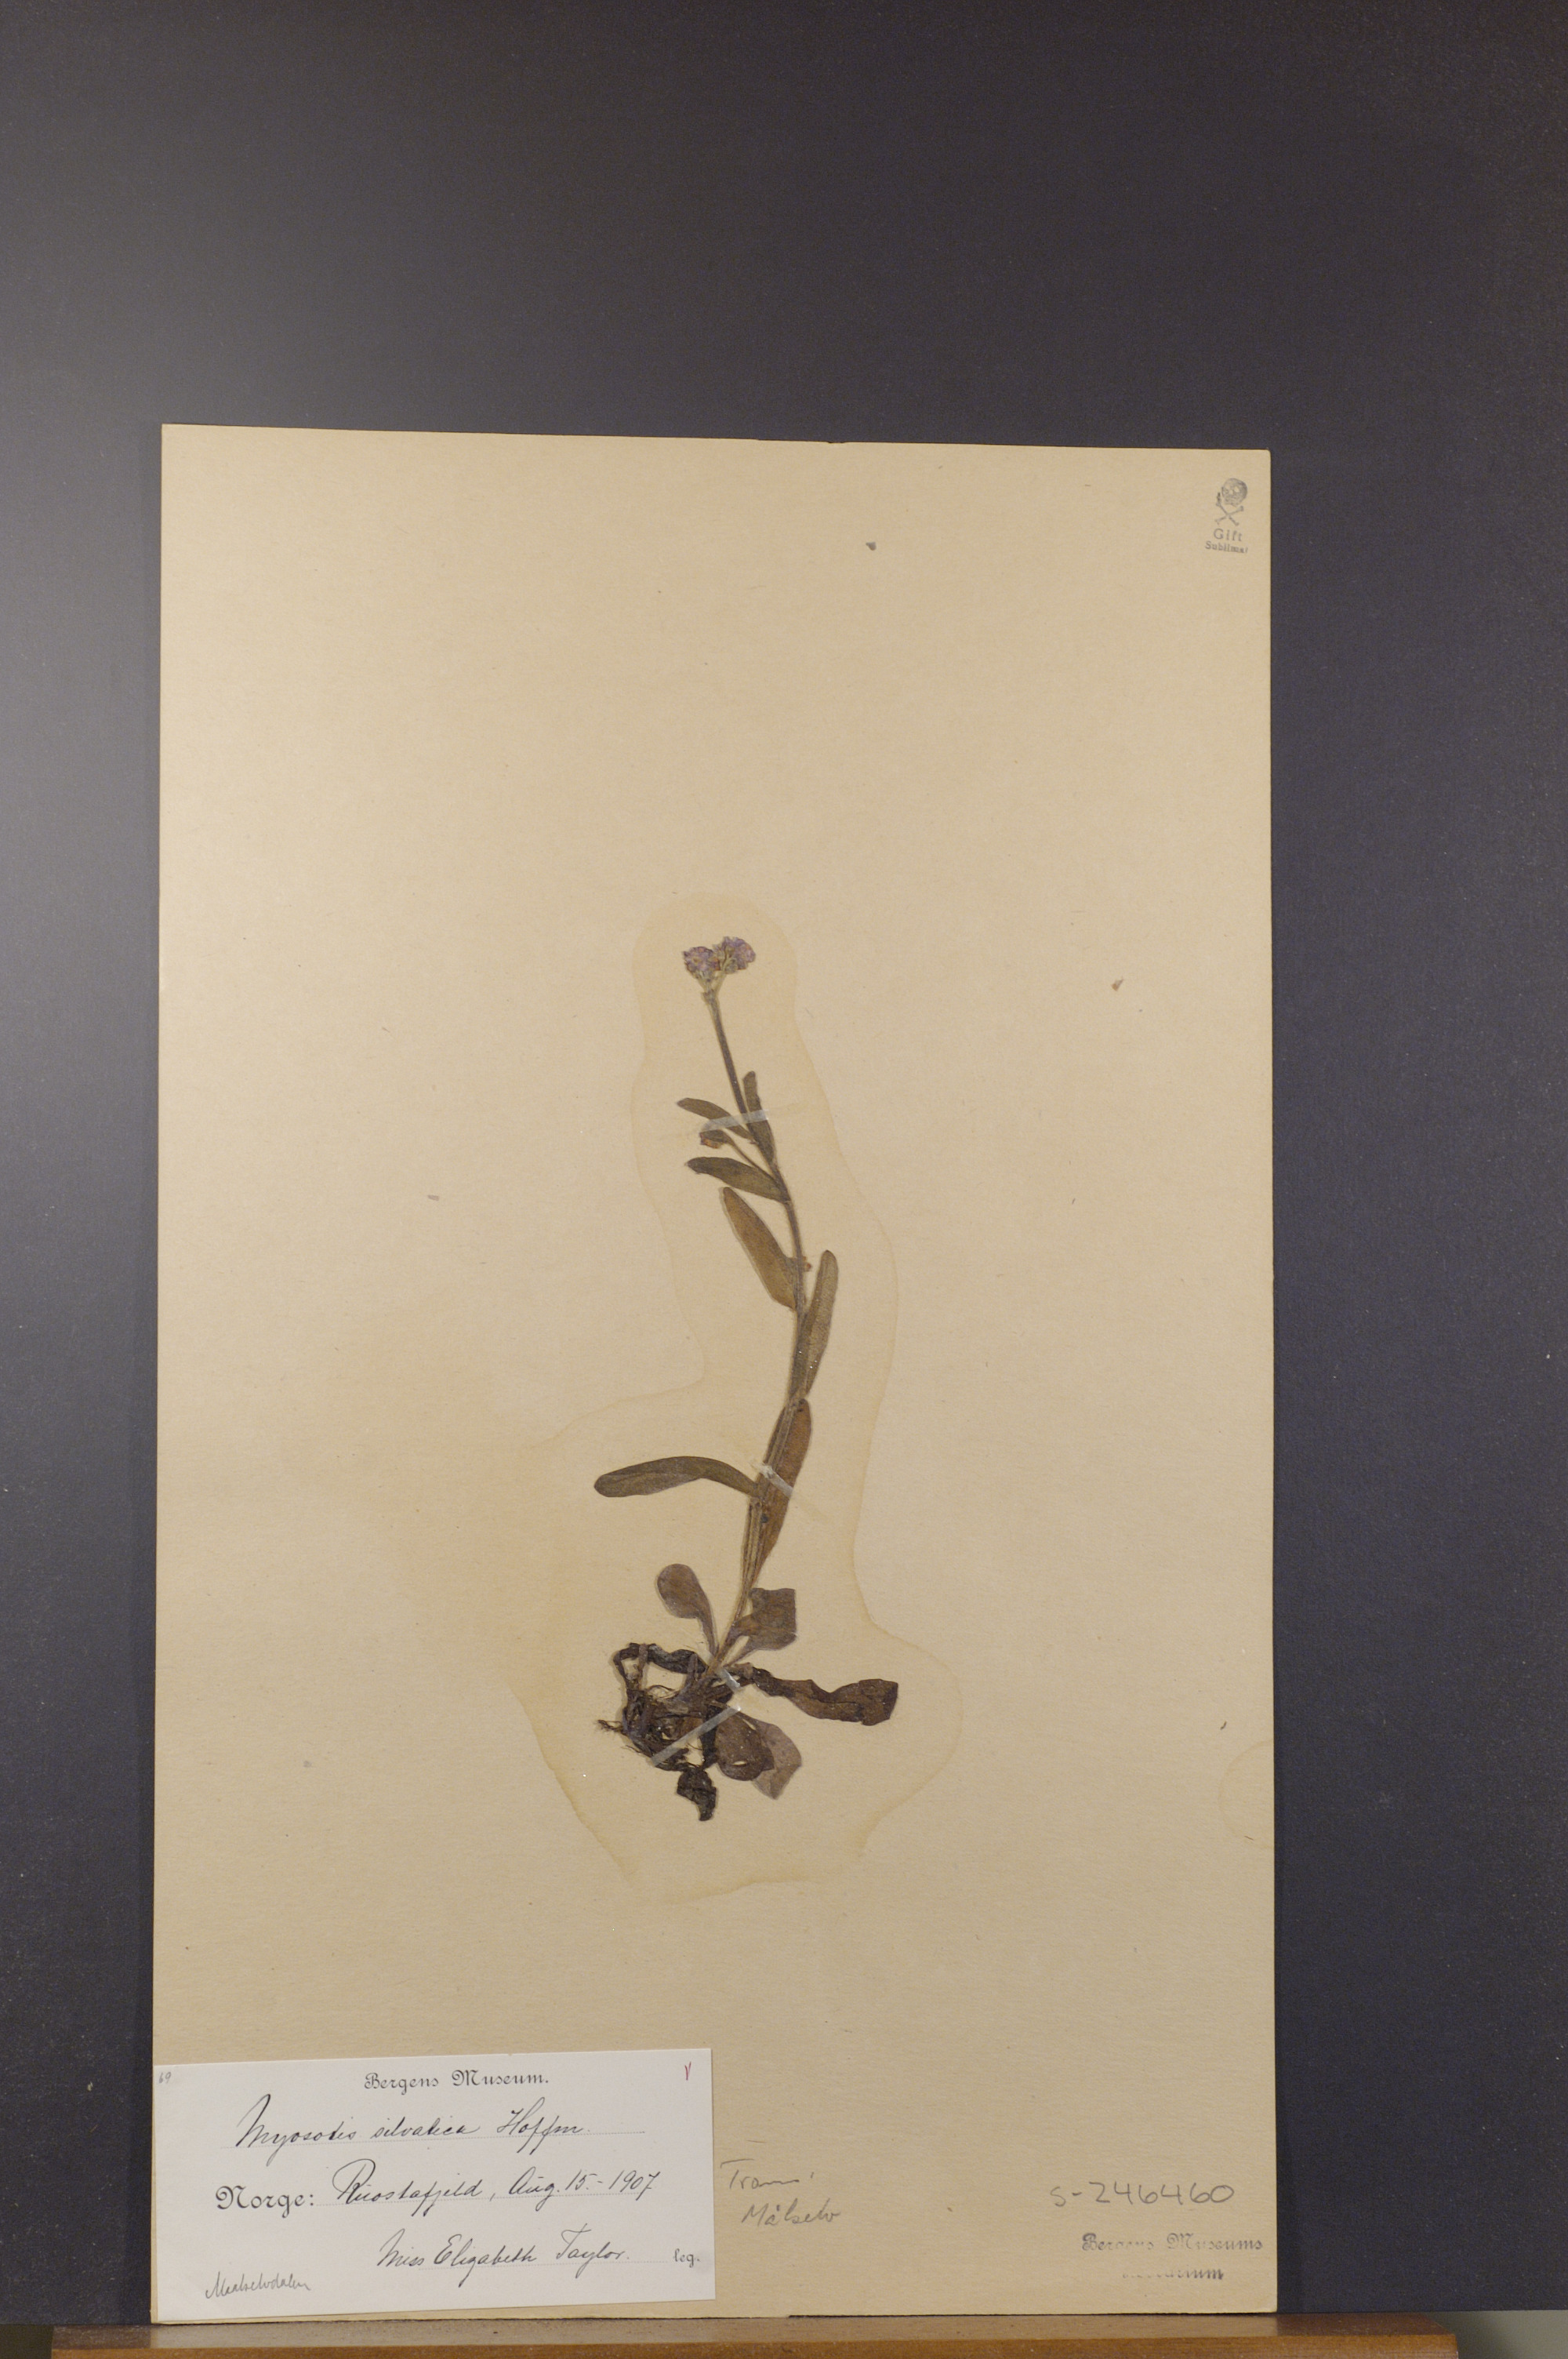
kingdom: Plantae
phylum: Tracheophyta
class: Magnoliopsida
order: Boraginales
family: Boraginaceae
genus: Myosotis
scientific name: Myosotis decumbens
